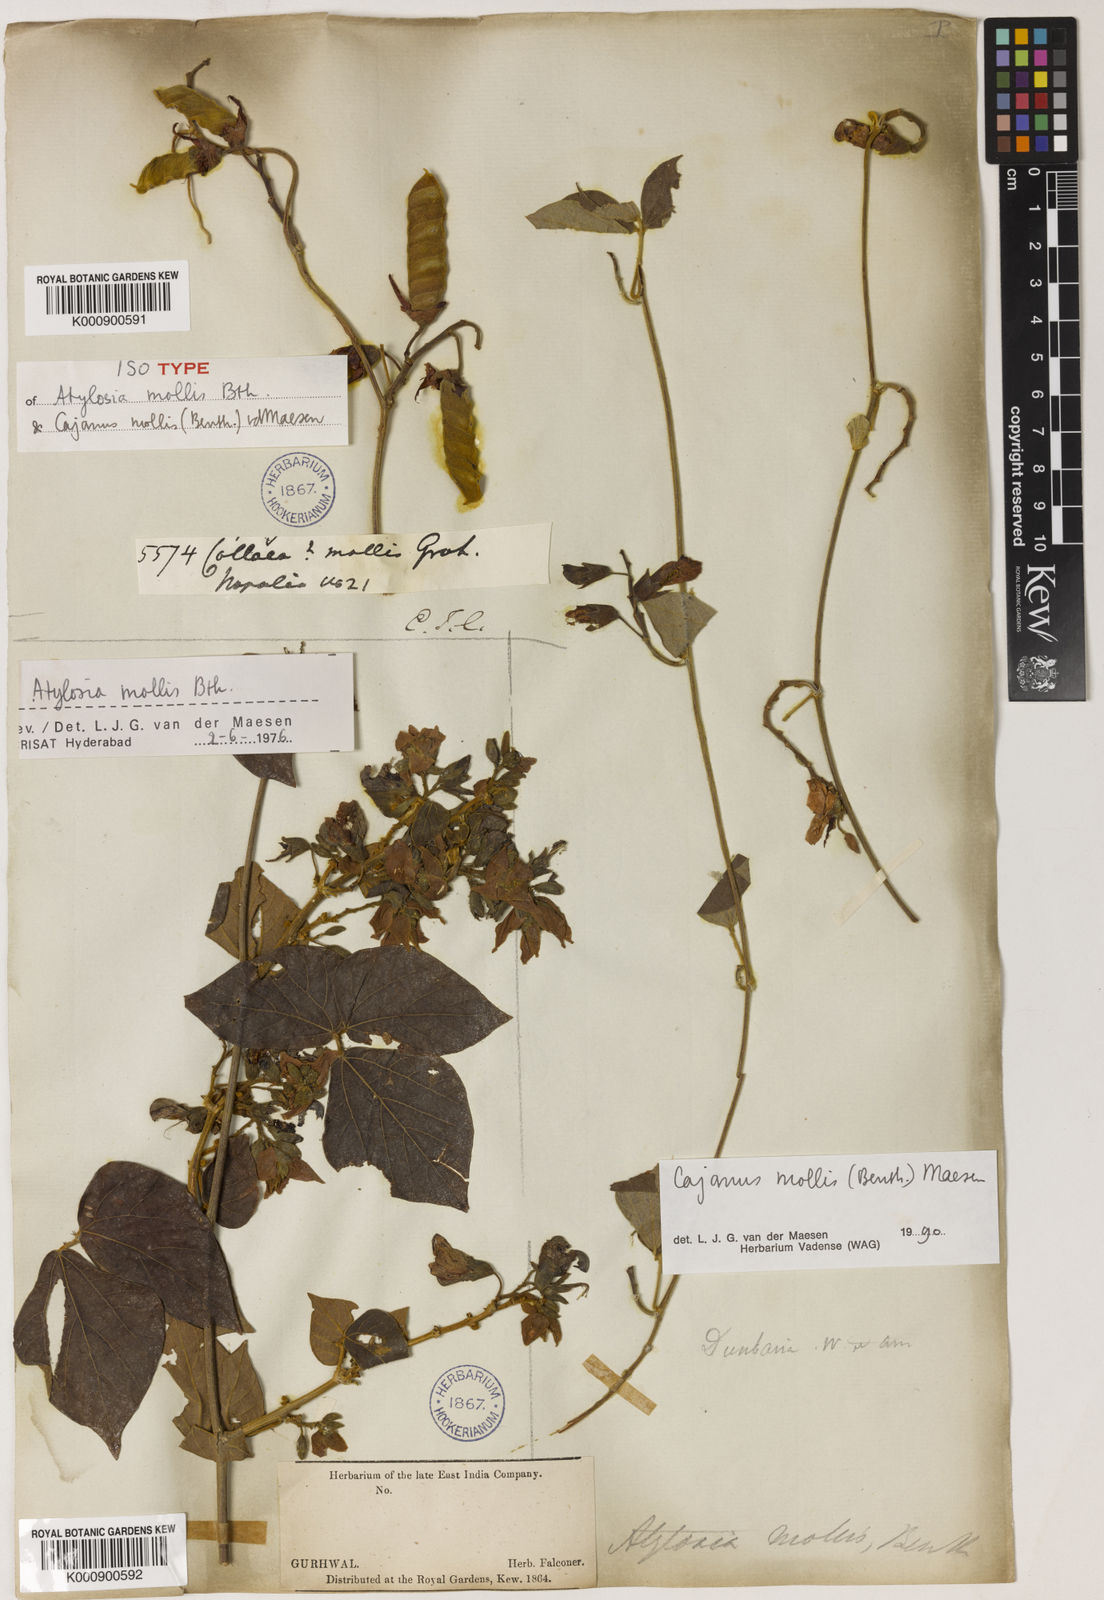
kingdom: Plantae
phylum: Tracheophyta
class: Magnoliopsida
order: Fabales
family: Fabaceae
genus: Cajanus
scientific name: Cajanus mollis
